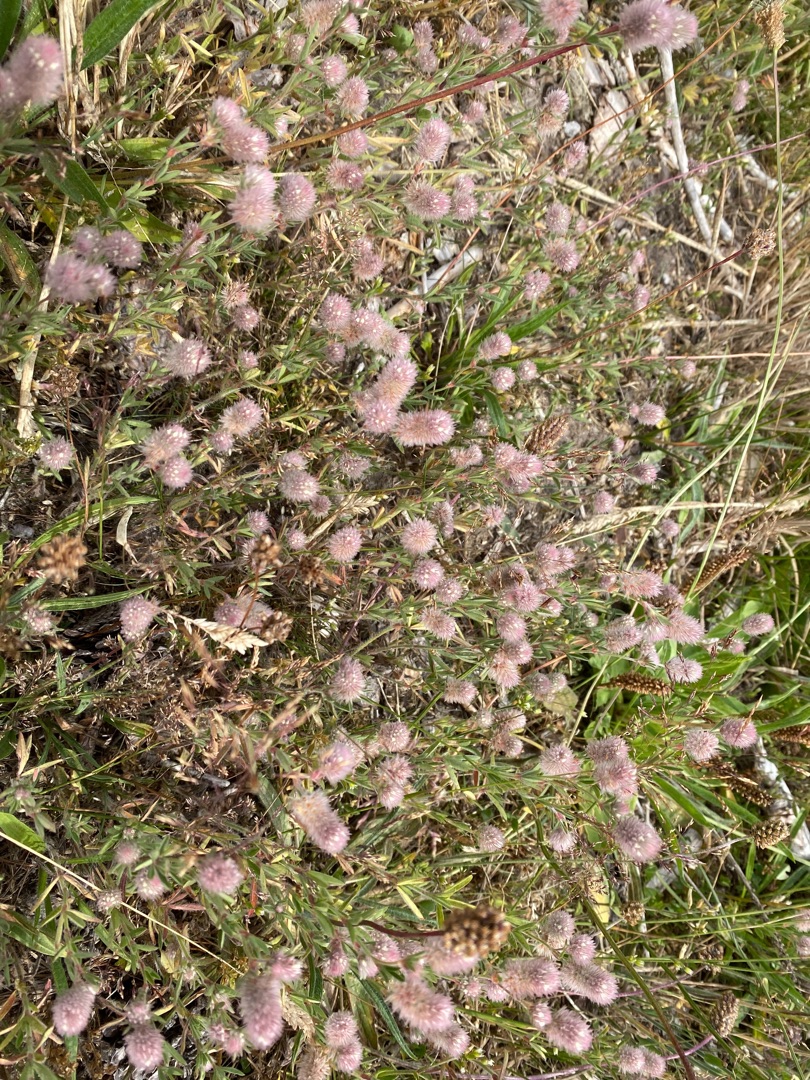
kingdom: Plantae
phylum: Tracheophyta
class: Magnoliopsida
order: Fabales
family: Fabaceae
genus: Trifolium
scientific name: Trifolium arvense
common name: Hare-kløver
